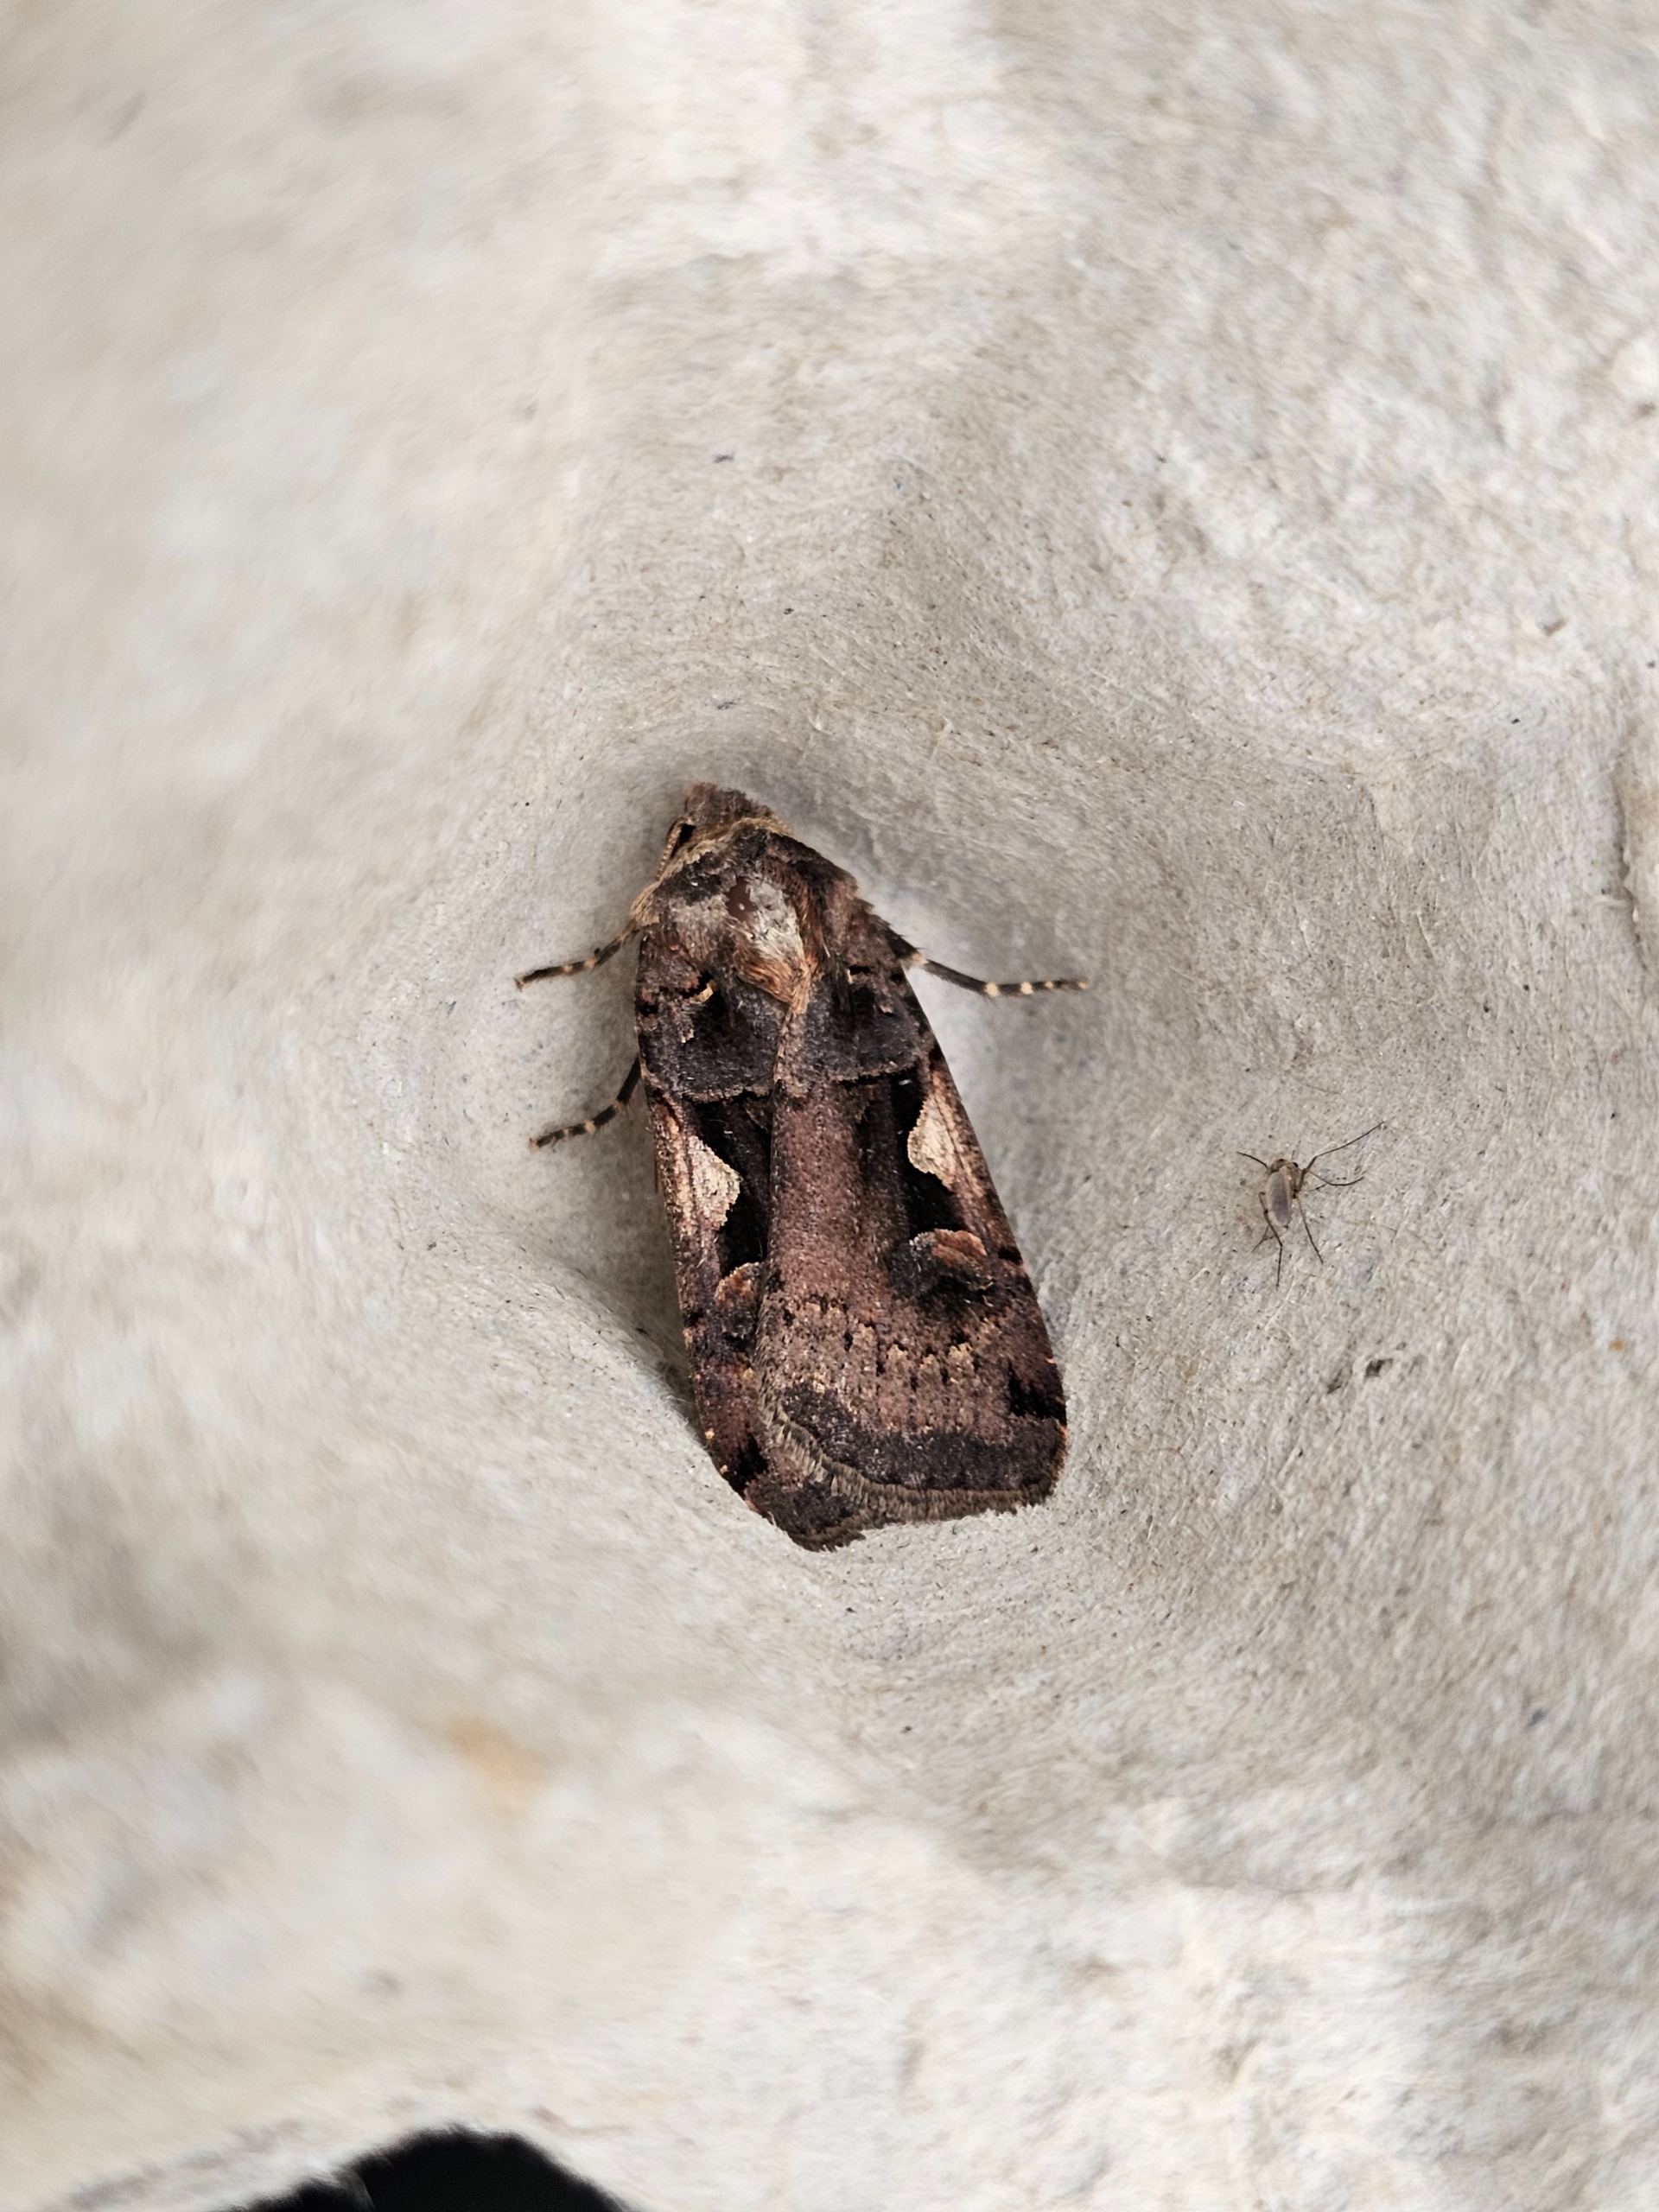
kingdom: Animalia
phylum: Arthropoda
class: Insecta
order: Lepidoptera
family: Noctuidae
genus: Xestia
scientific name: Xestia c-nigrum
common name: Det sorte c
